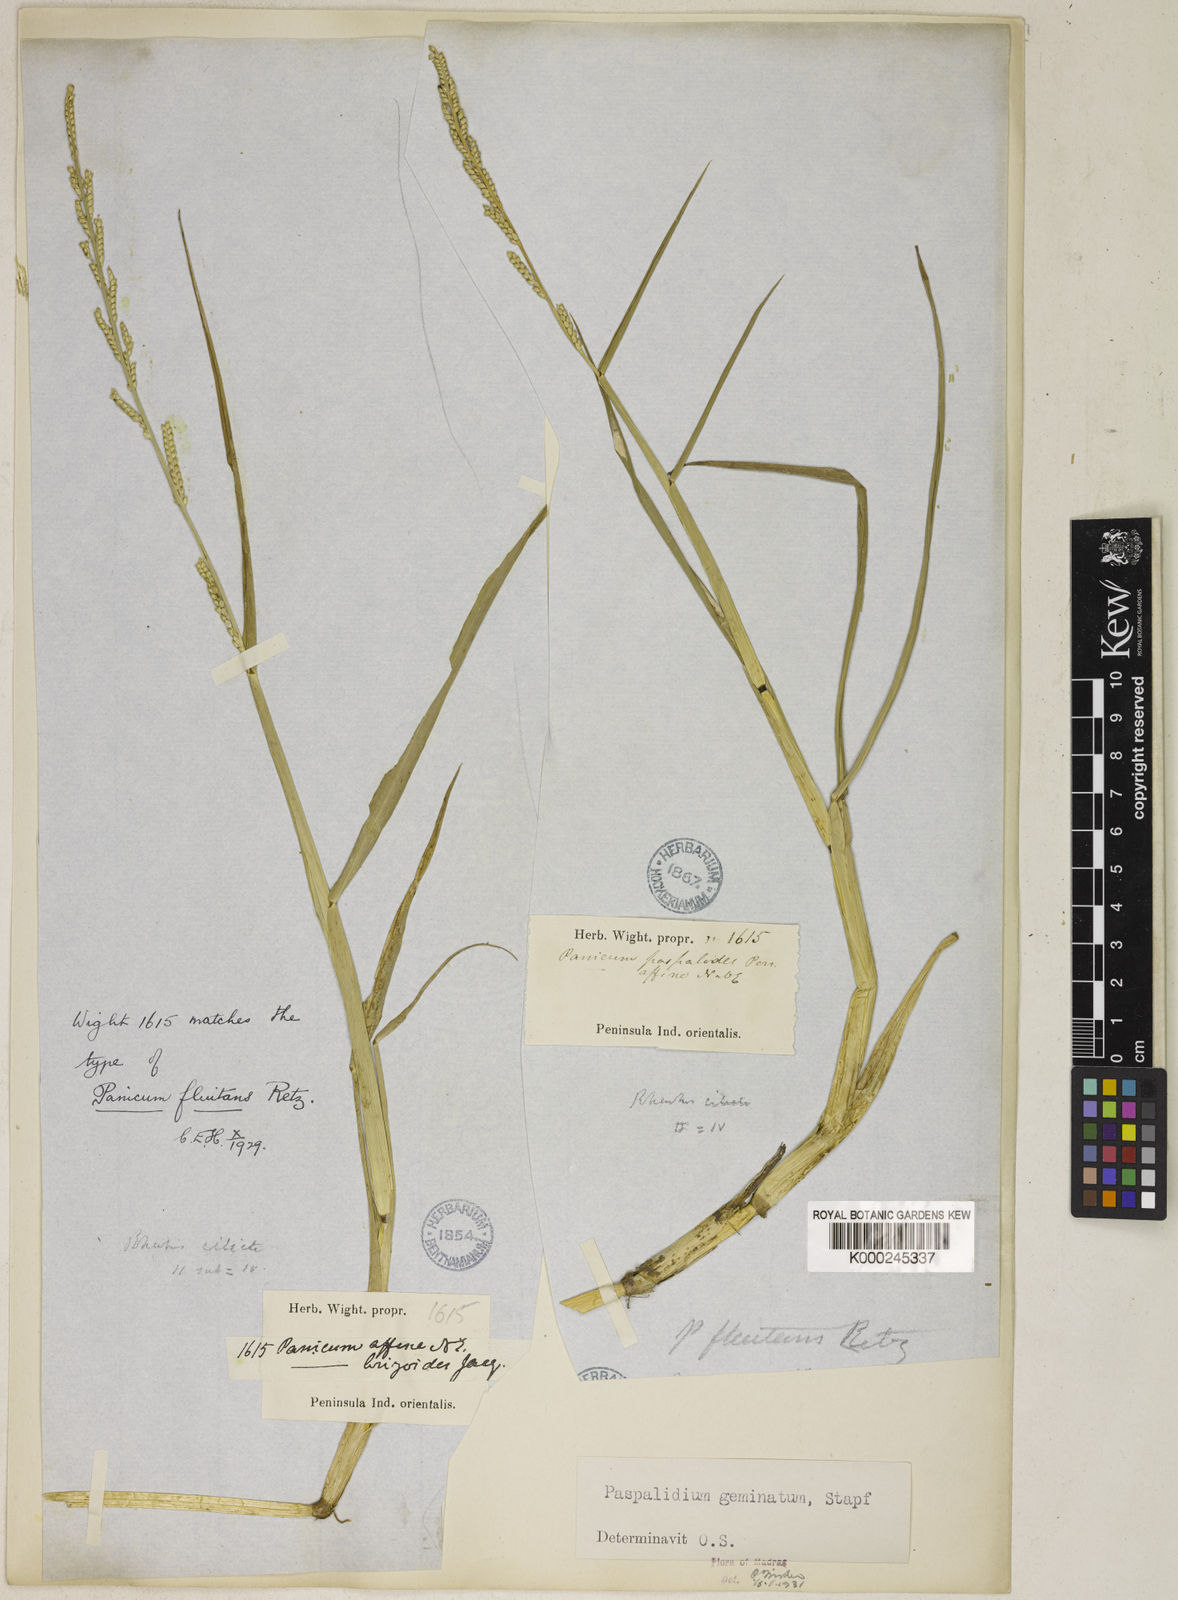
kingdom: Plantae
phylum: Tracheophyta
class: Liliopsida
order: Poales
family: Poaceae
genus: Setaria
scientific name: Setaria geminata
